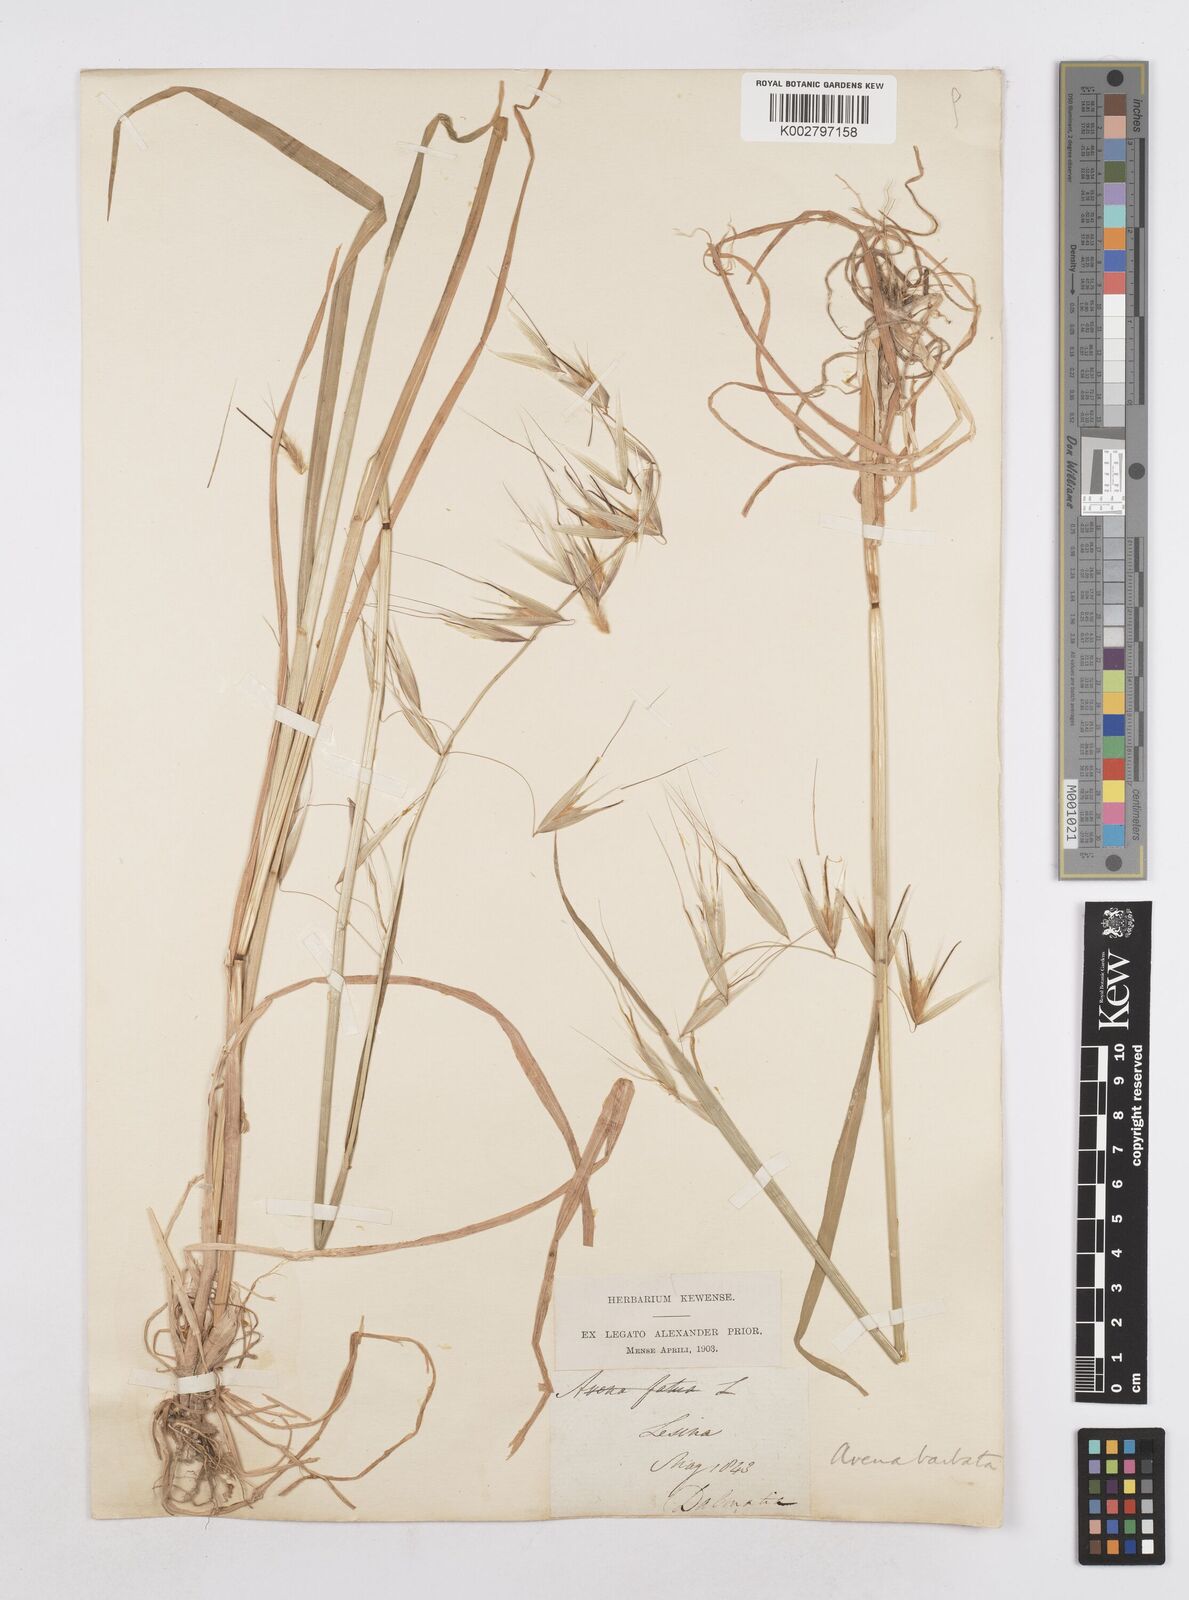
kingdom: Plantae
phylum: Tracheophyta
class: Liliopsida
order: Poales
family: Poaceae
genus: Avena
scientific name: Avena
